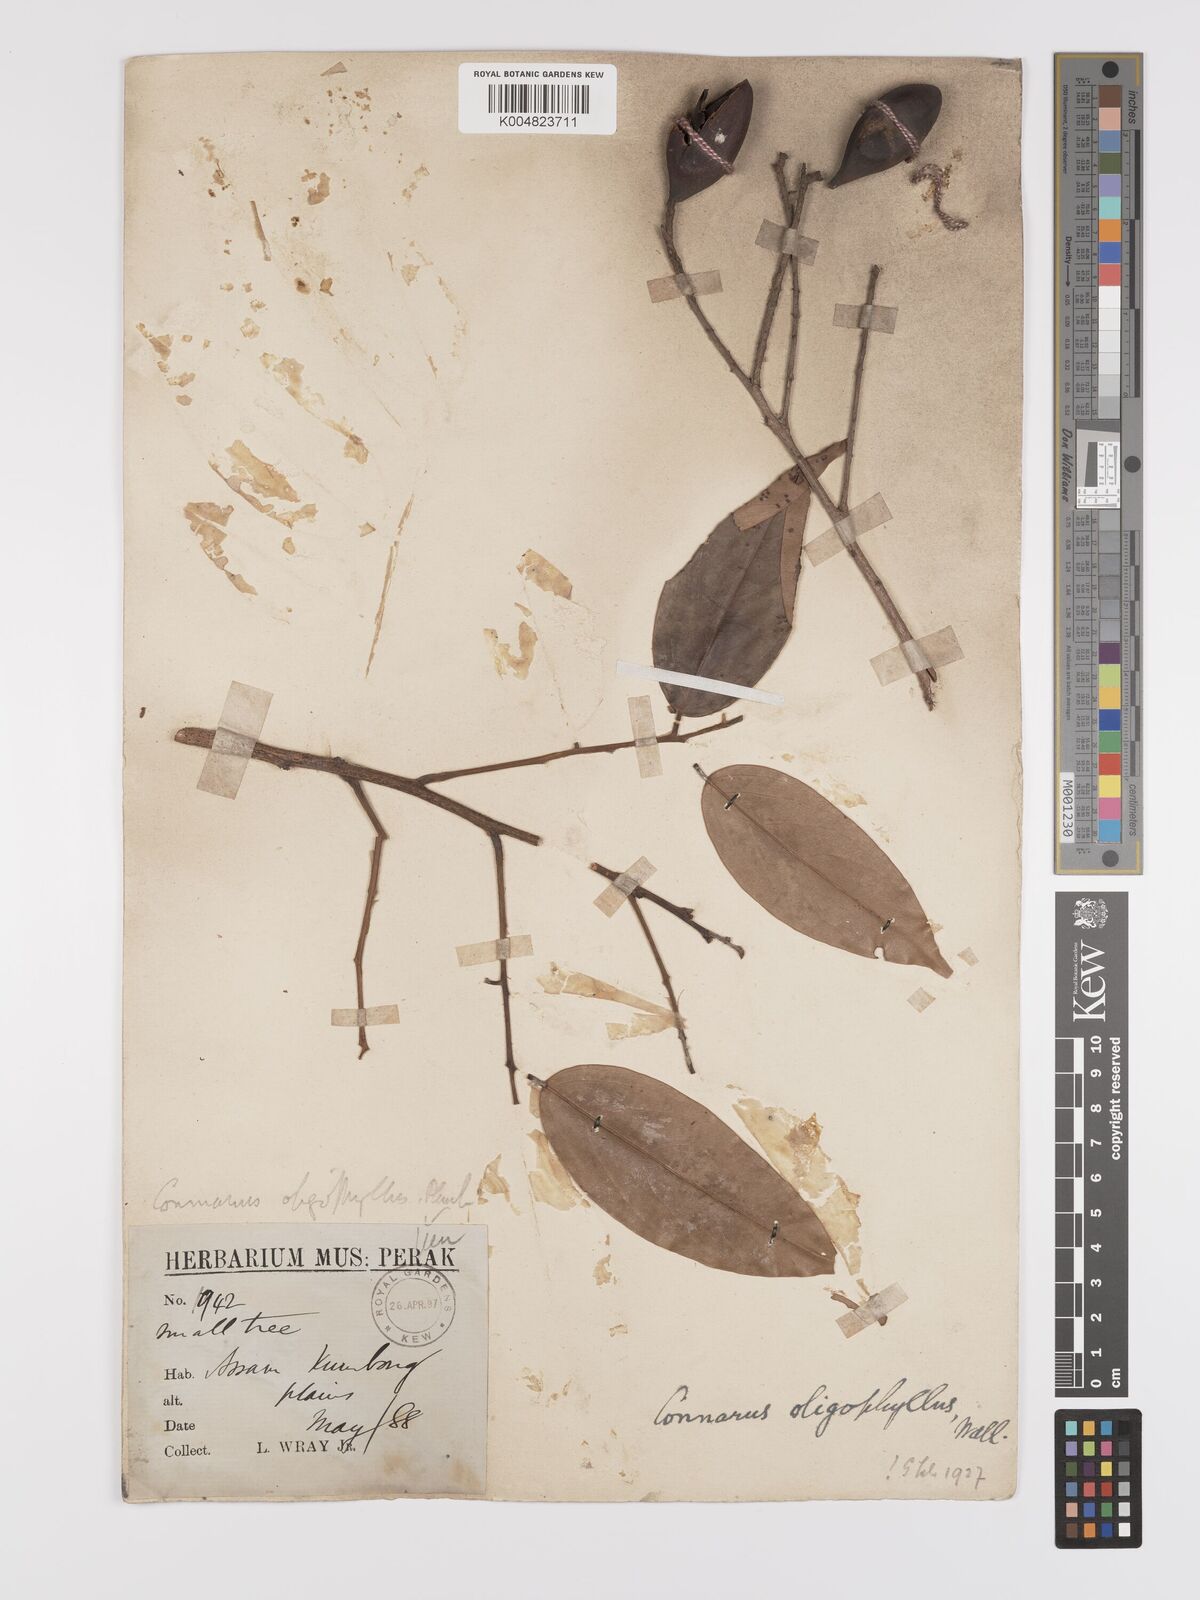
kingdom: Plantae
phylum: Tracheophyta
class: Magnoliopsida
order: Oxalidales
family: Connaraceae
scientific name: Connaraceae
